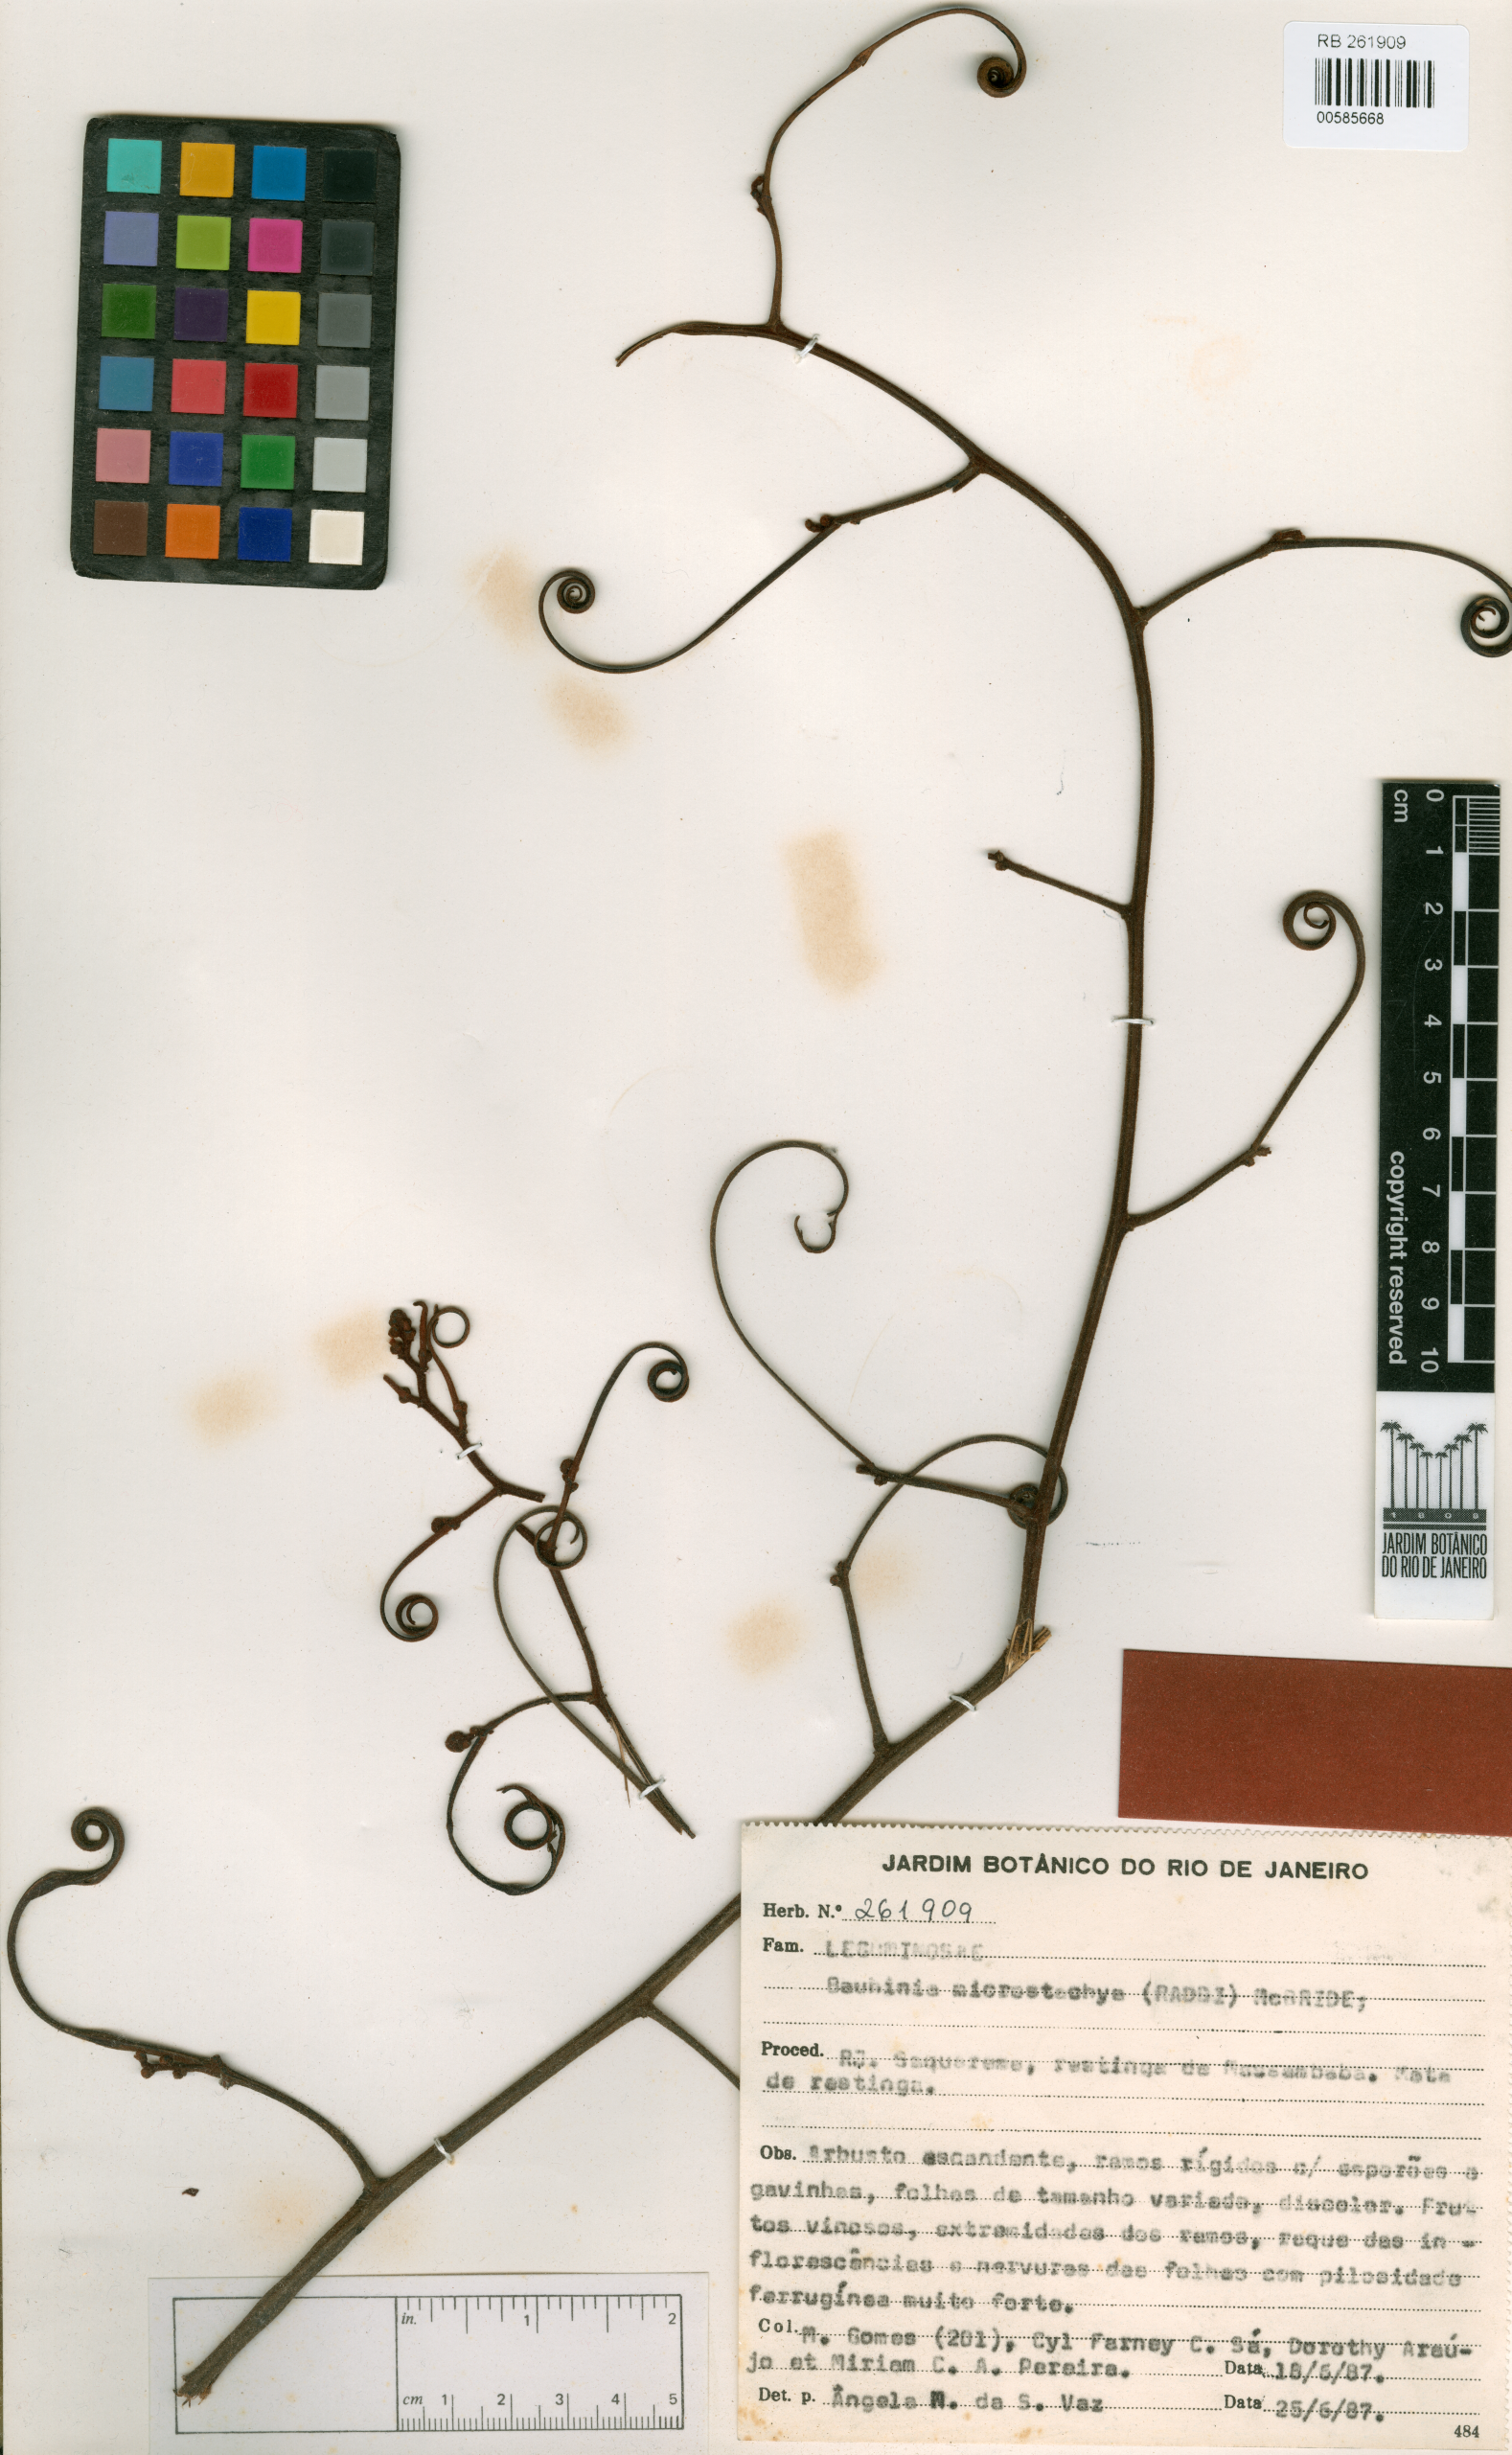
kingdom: Plantae
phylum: Tracheophyta
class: Magnoliopsida
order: Fabales
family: Fabaceae
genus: Schnella
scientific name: Schnella microstachya
